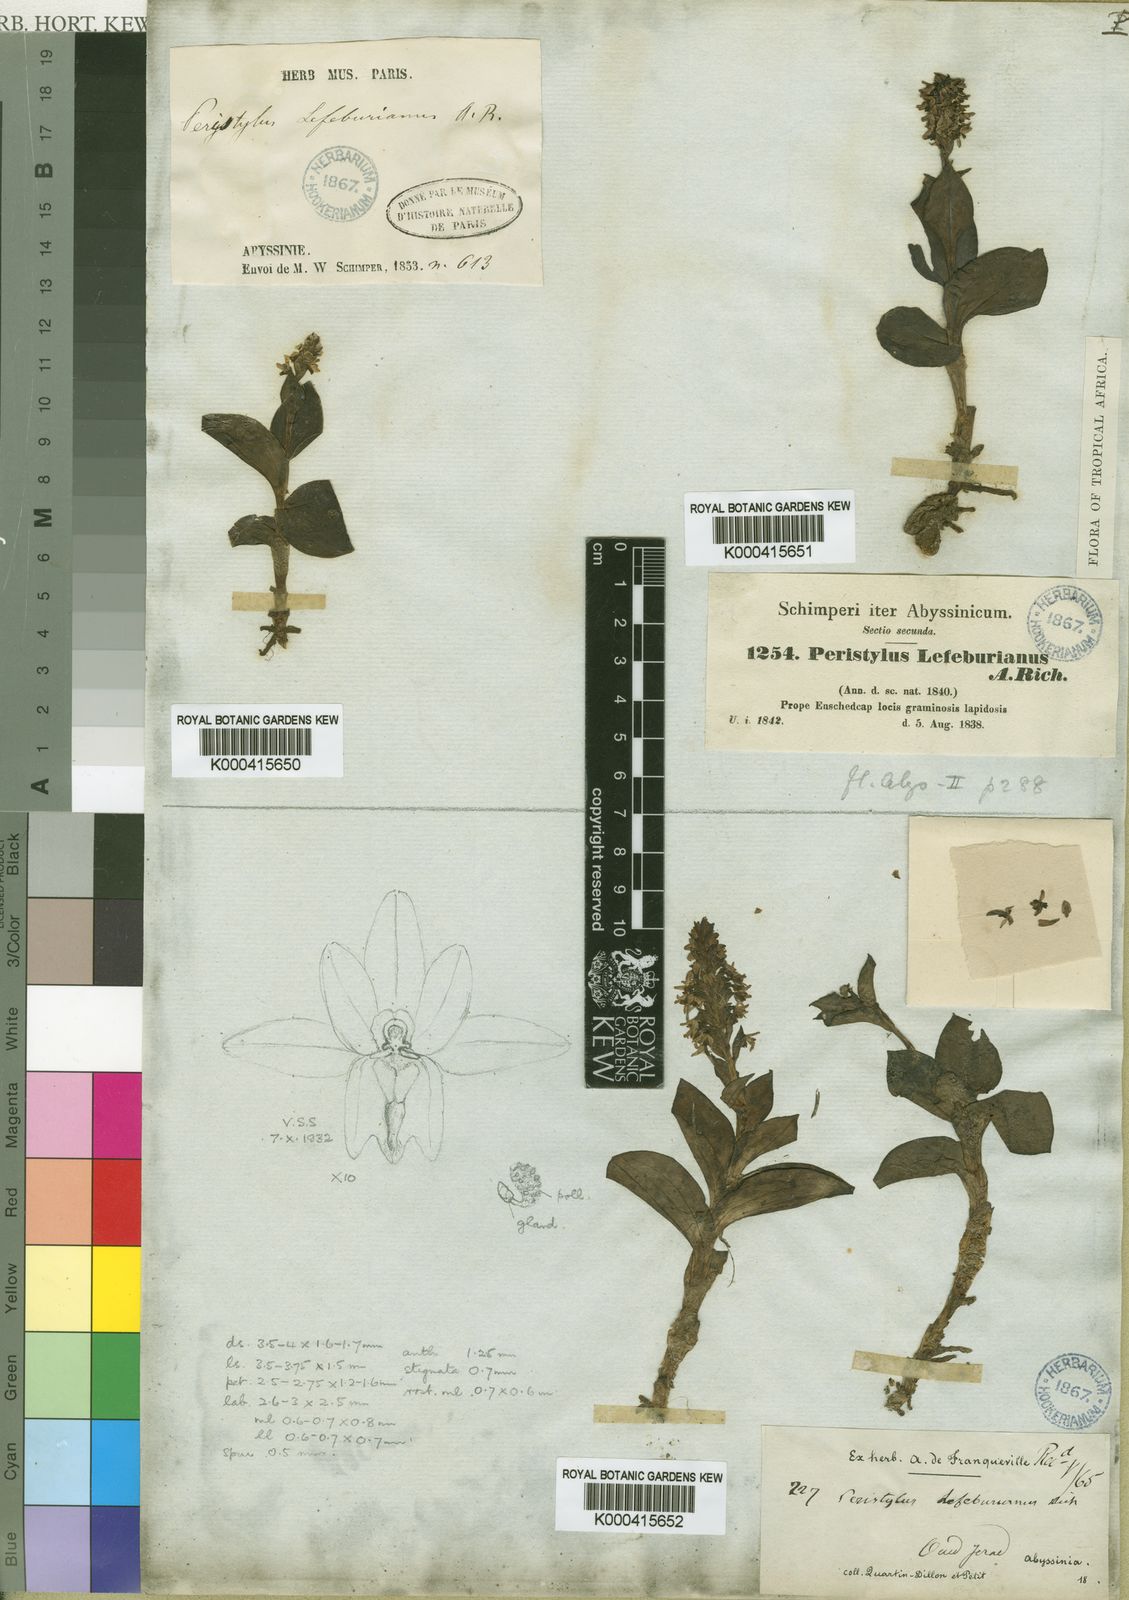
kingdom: Plantae
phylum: Tracheophyta
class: Liliopsida
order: Asparagales
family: Orchidaceae
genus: Habenaria
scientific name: Habenaria
